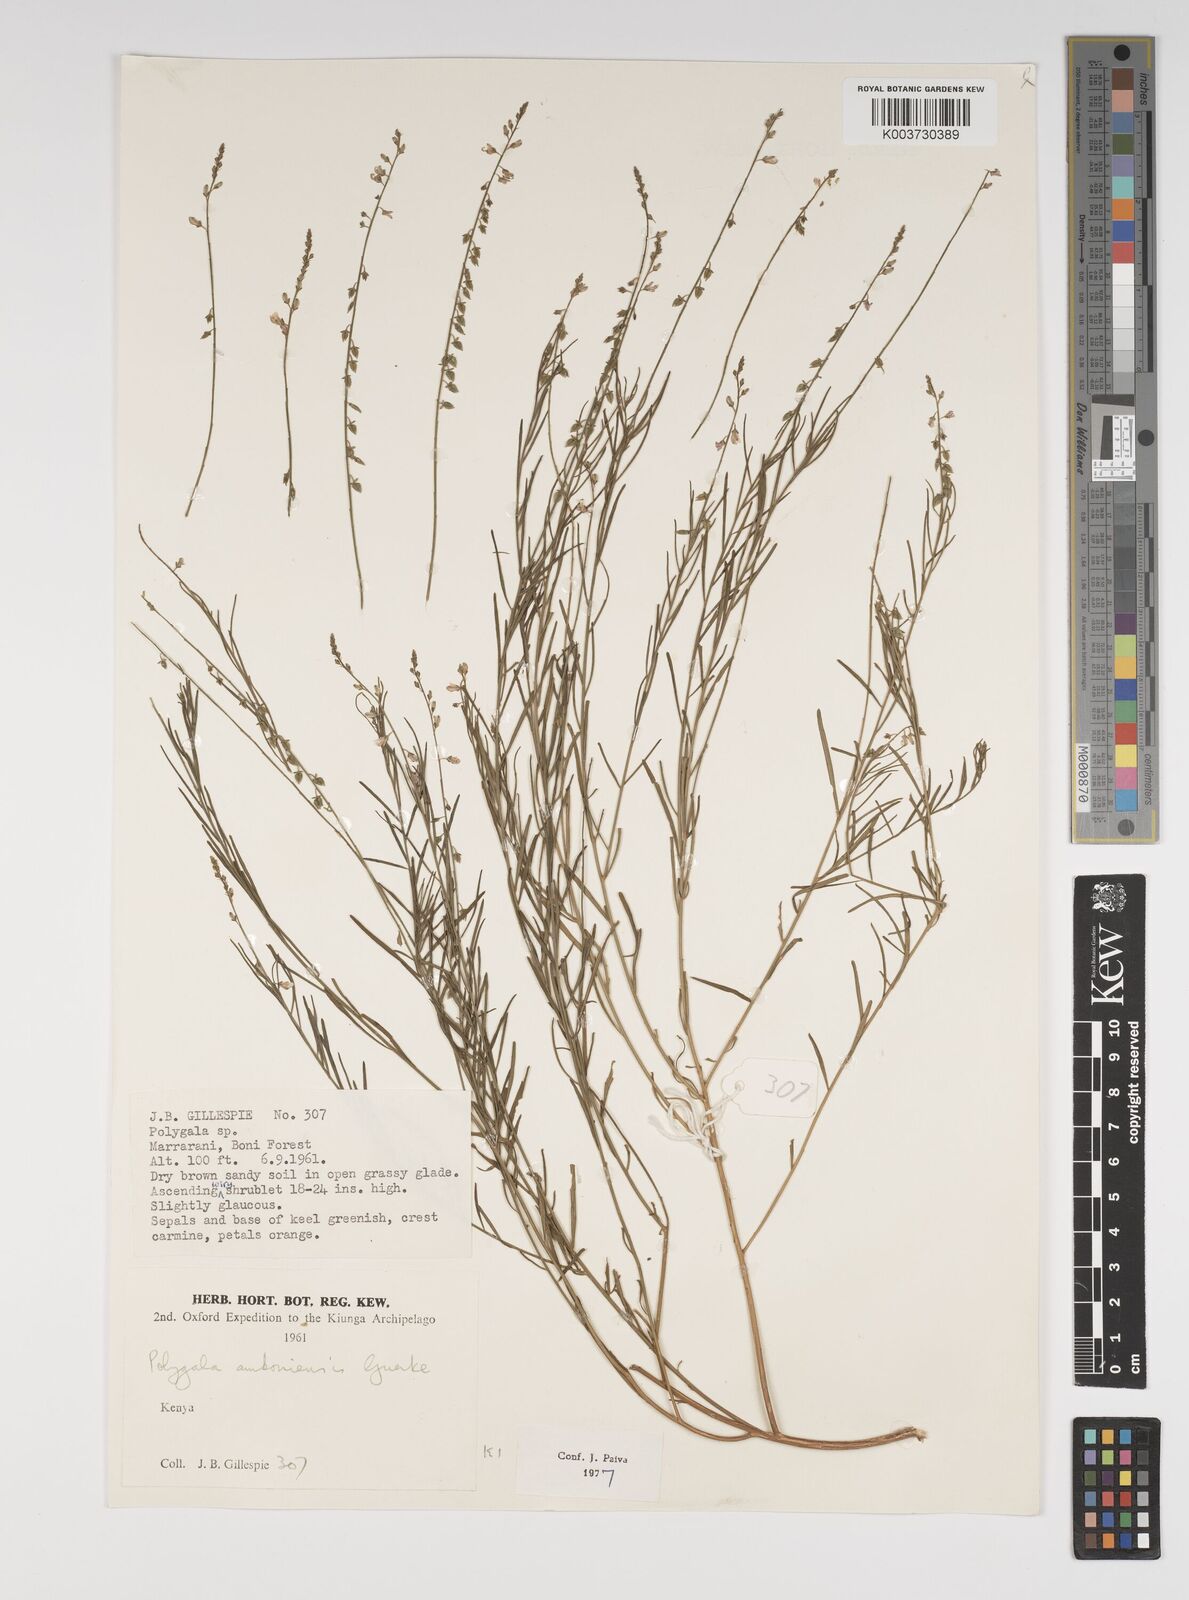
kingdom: Plantae
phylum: Tracheophyta
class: Magnoliopsida
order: Fabales
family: Polygalaceae
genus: Polygala
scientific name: Polygala amboniensis
